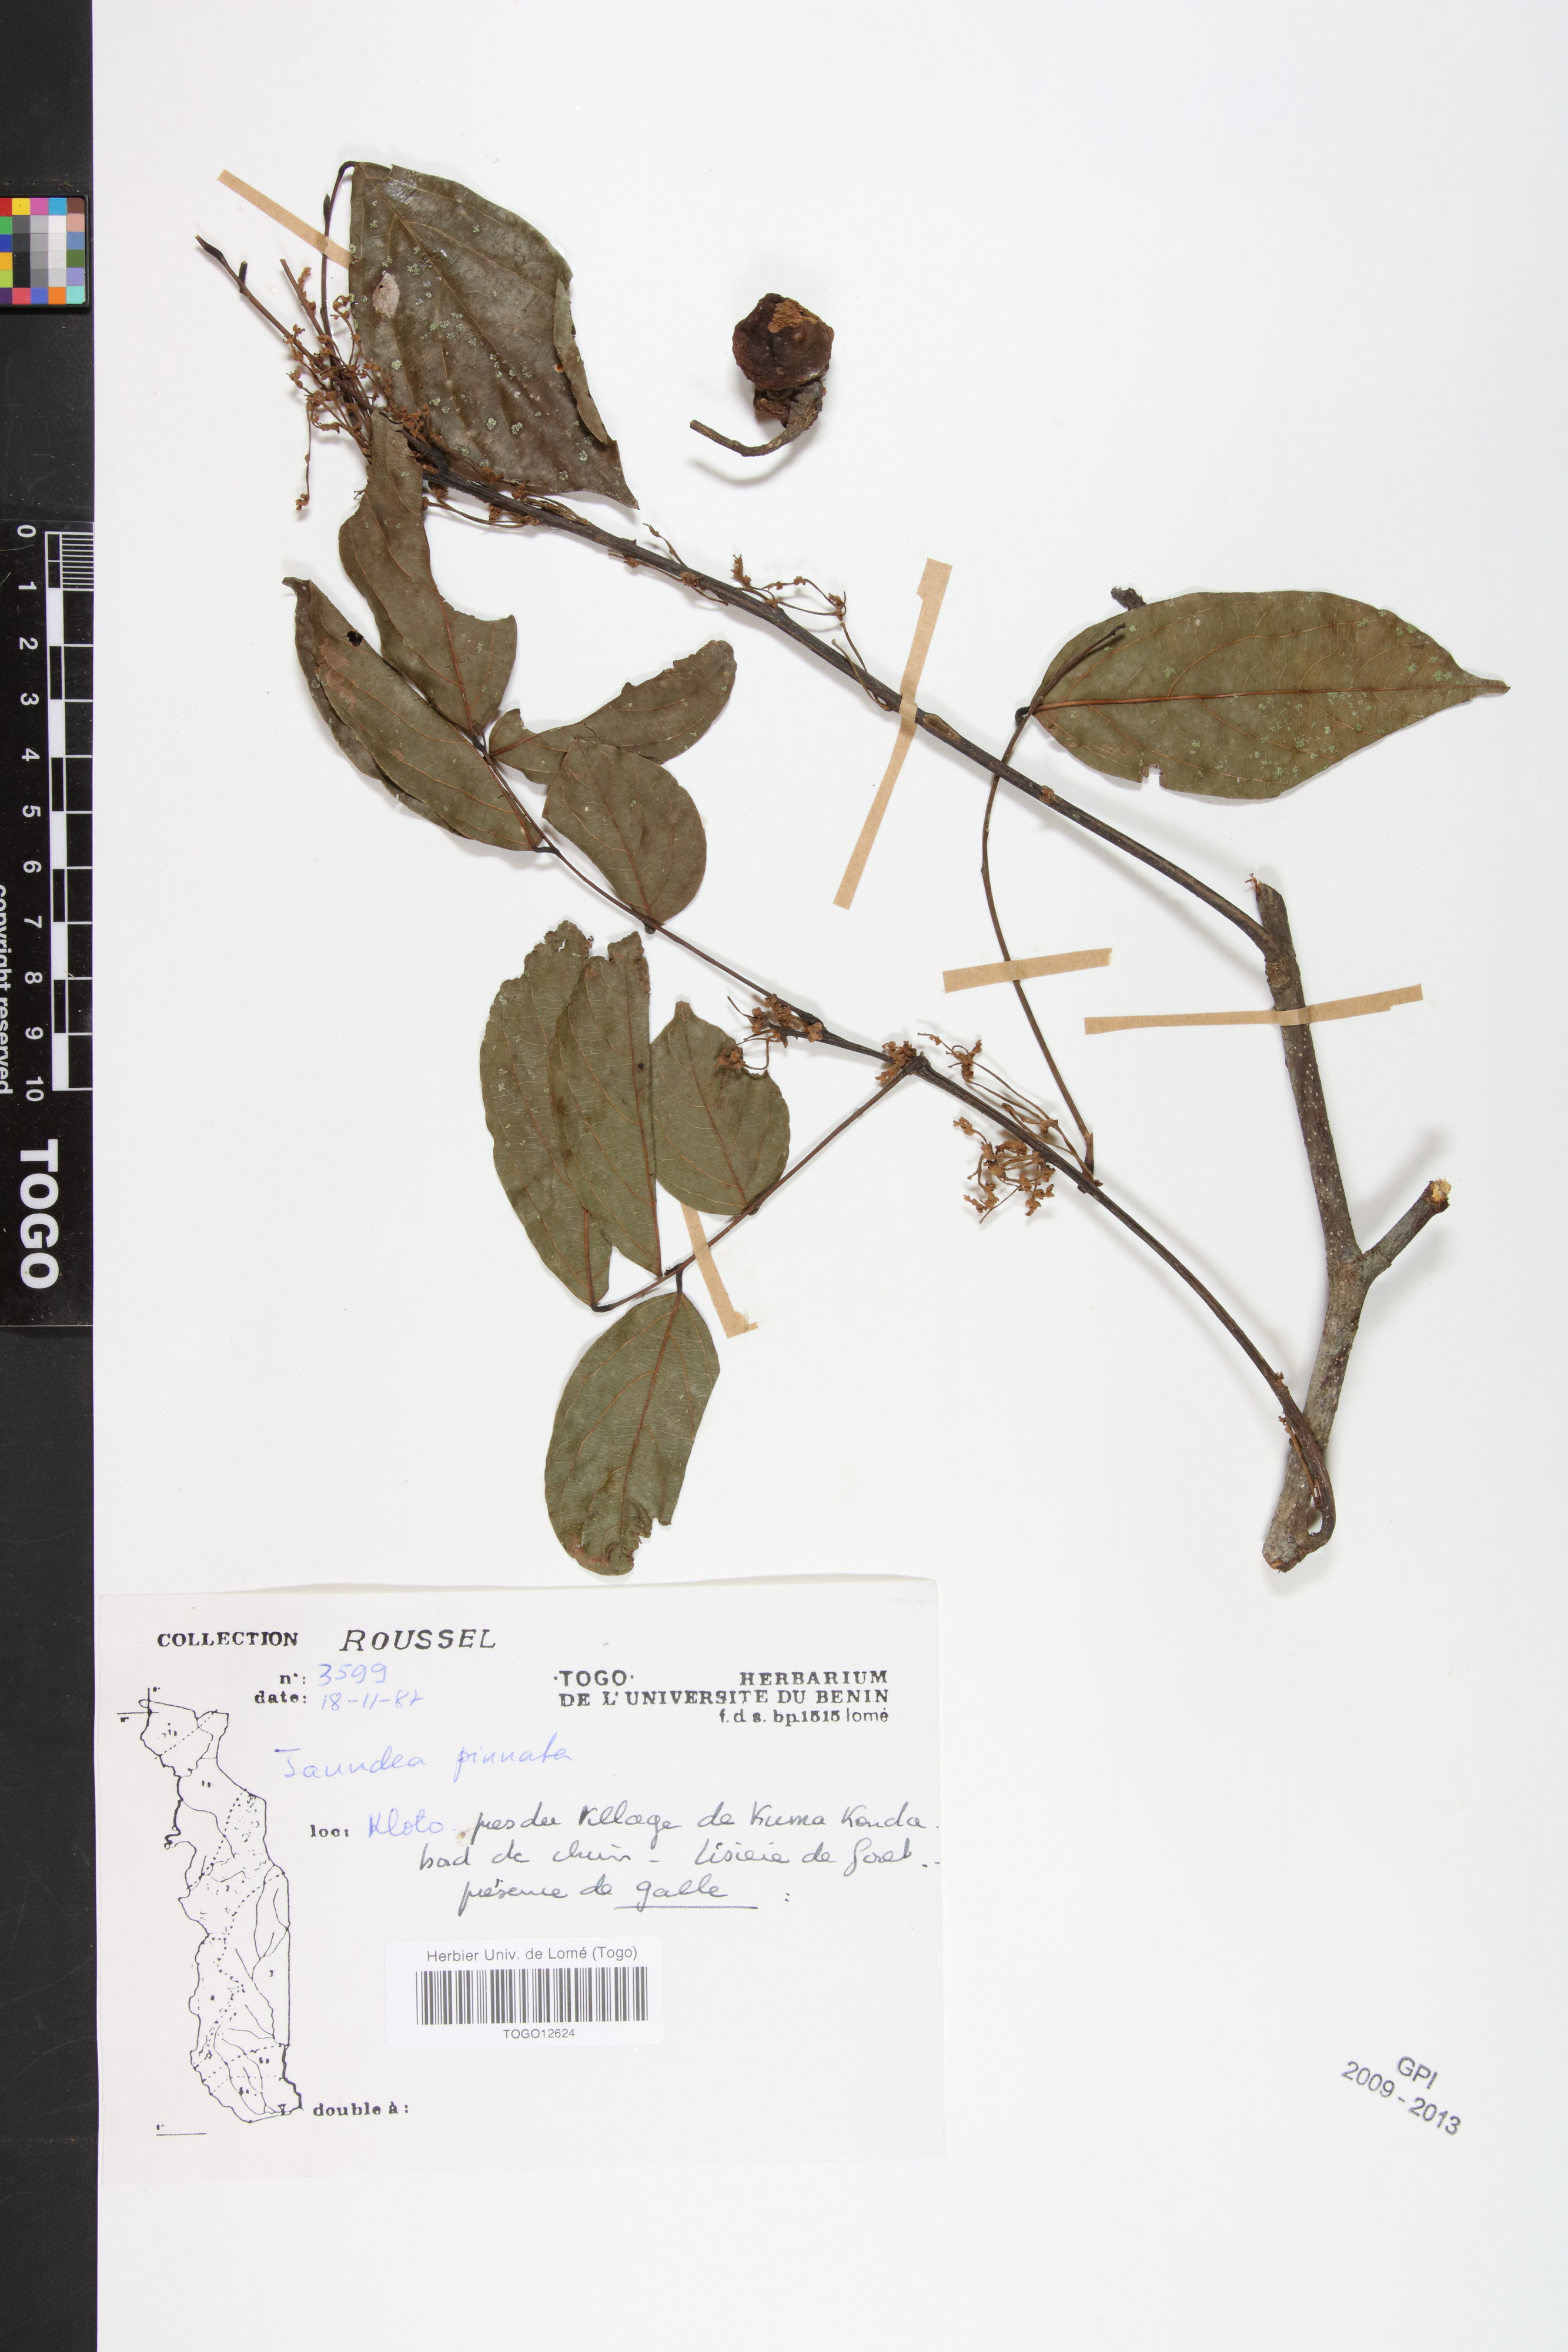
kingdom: Plantae
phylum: Tracheophyta
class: Magnoliopsida
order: Oxalidales
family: Connaraceae
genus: Rourea
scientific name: Rourea thomsonii
